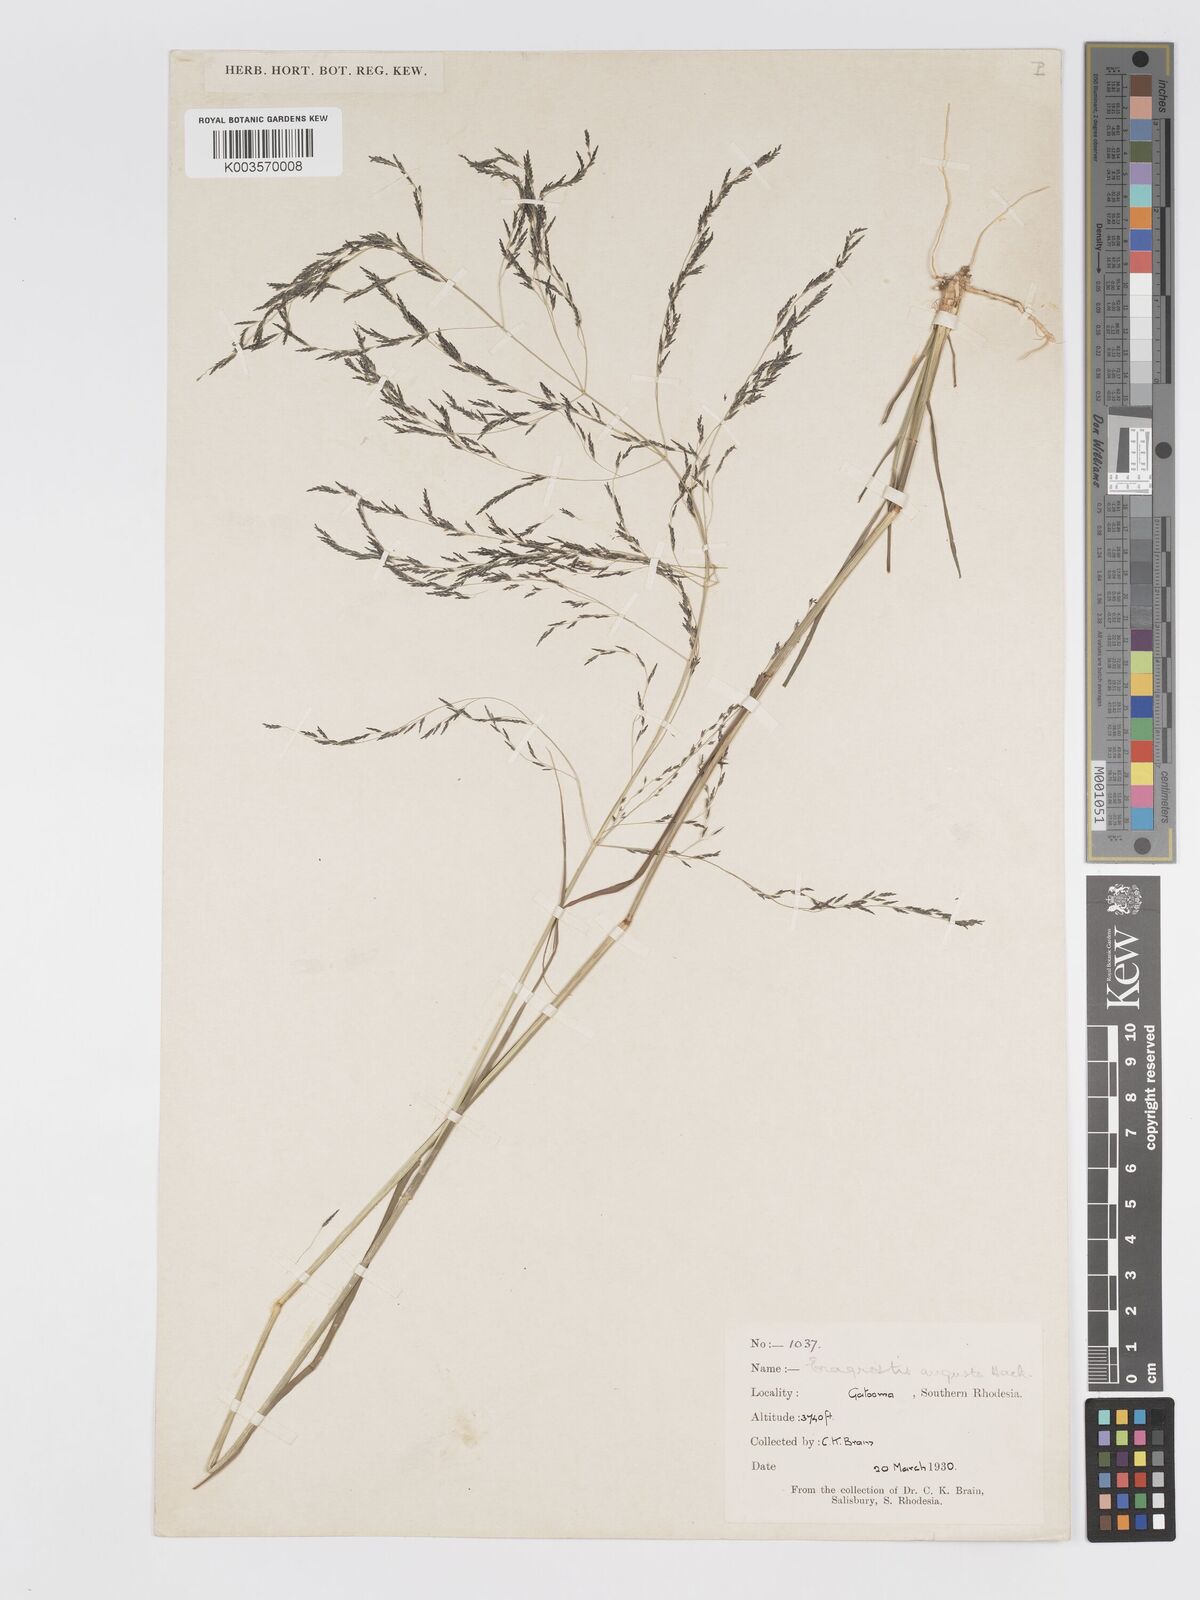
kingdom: Plantae
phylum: Tracheophyta
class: Liliopsida
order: Poales
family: Poaceae
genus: Eragrostis
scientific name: Eragrostis rotifer
